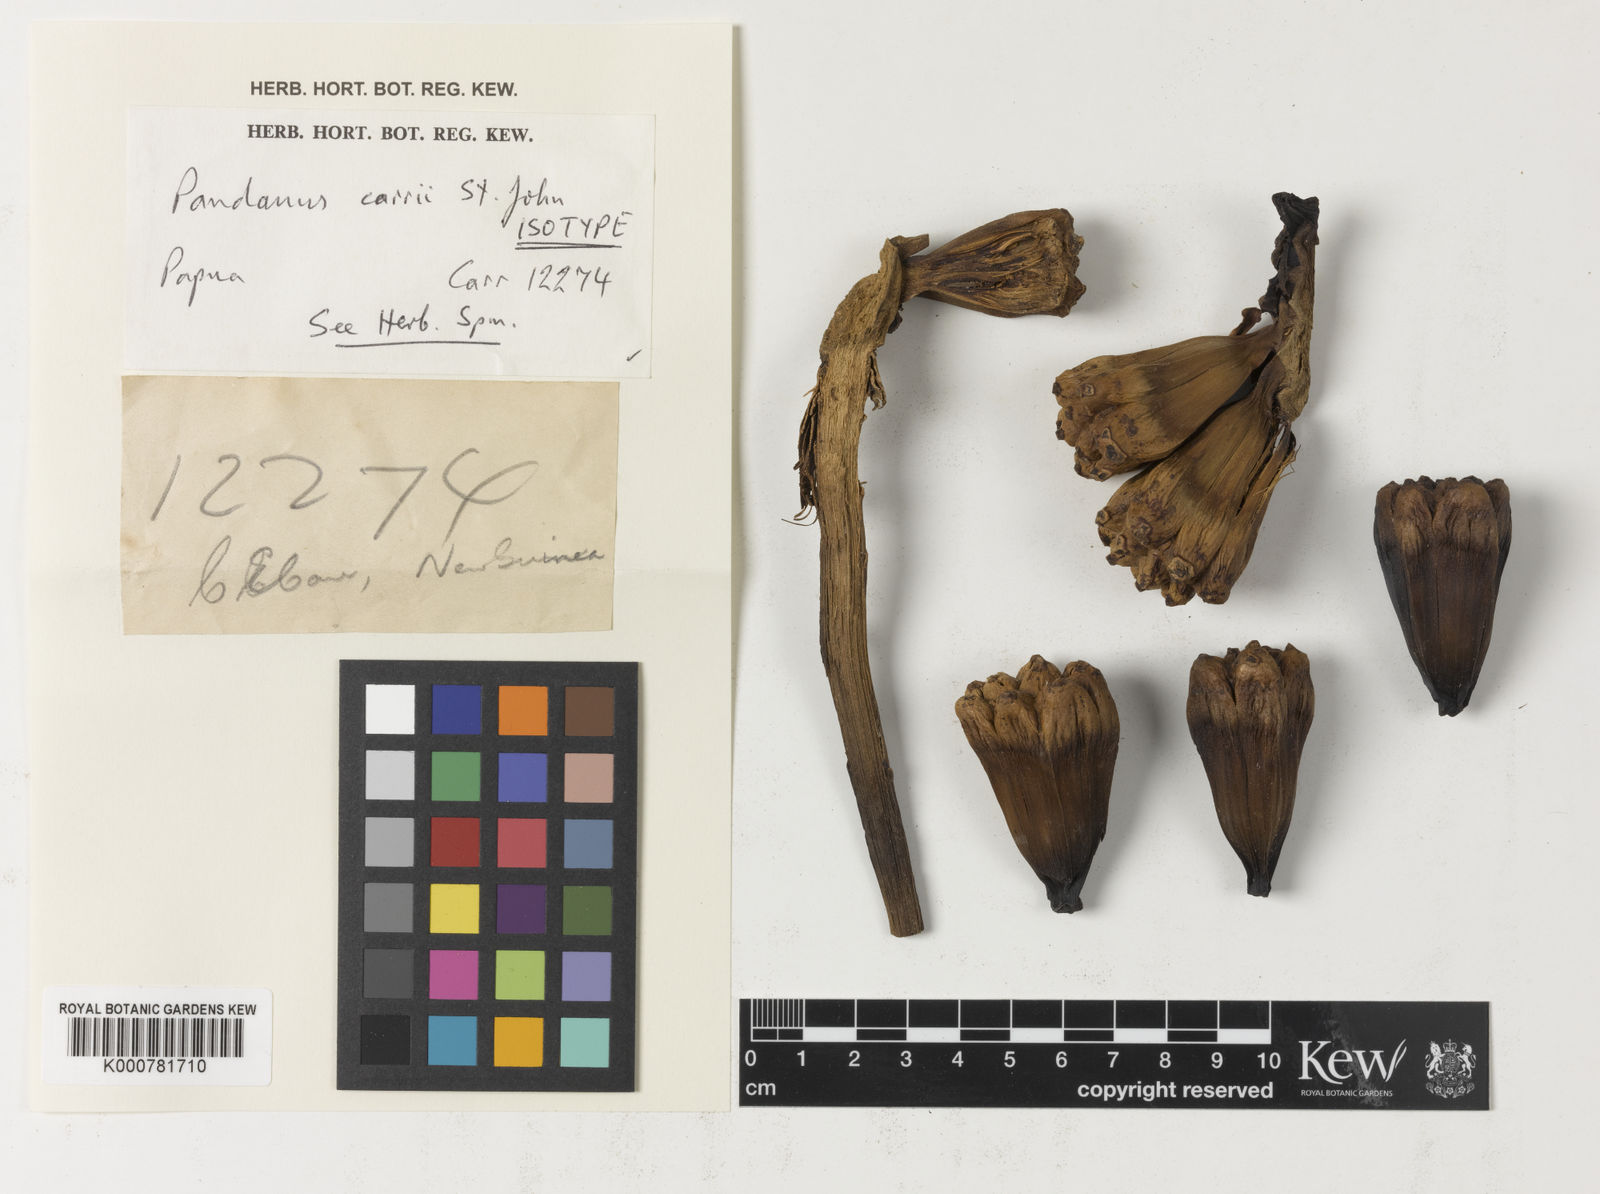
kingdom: Plantae
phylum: Tracheophyta
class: Liliopsida
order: Pandanales
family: Pandanaceae
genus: Pandanus
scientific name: Pandanus carrii
